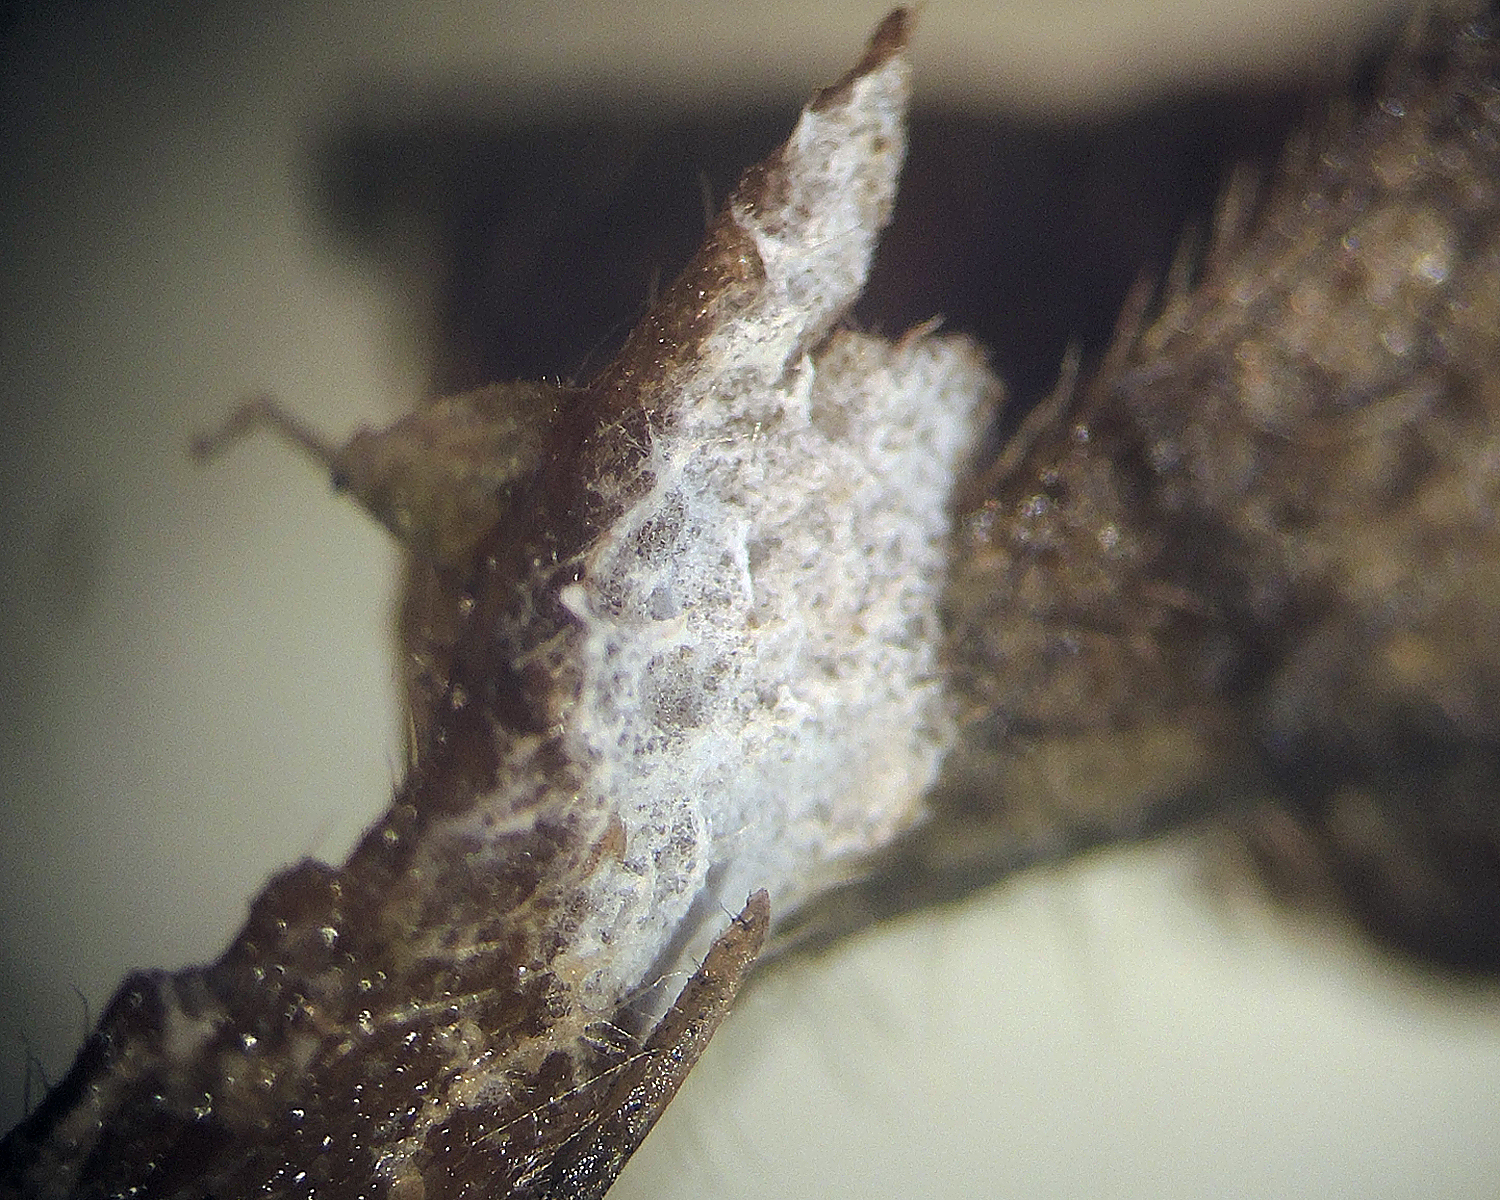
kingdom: Fungi
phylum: Basidiomycota
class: Agaricomycetes
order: Atheliales
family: Atheliaceae
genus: Athelia
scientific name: Athelia decipiens
